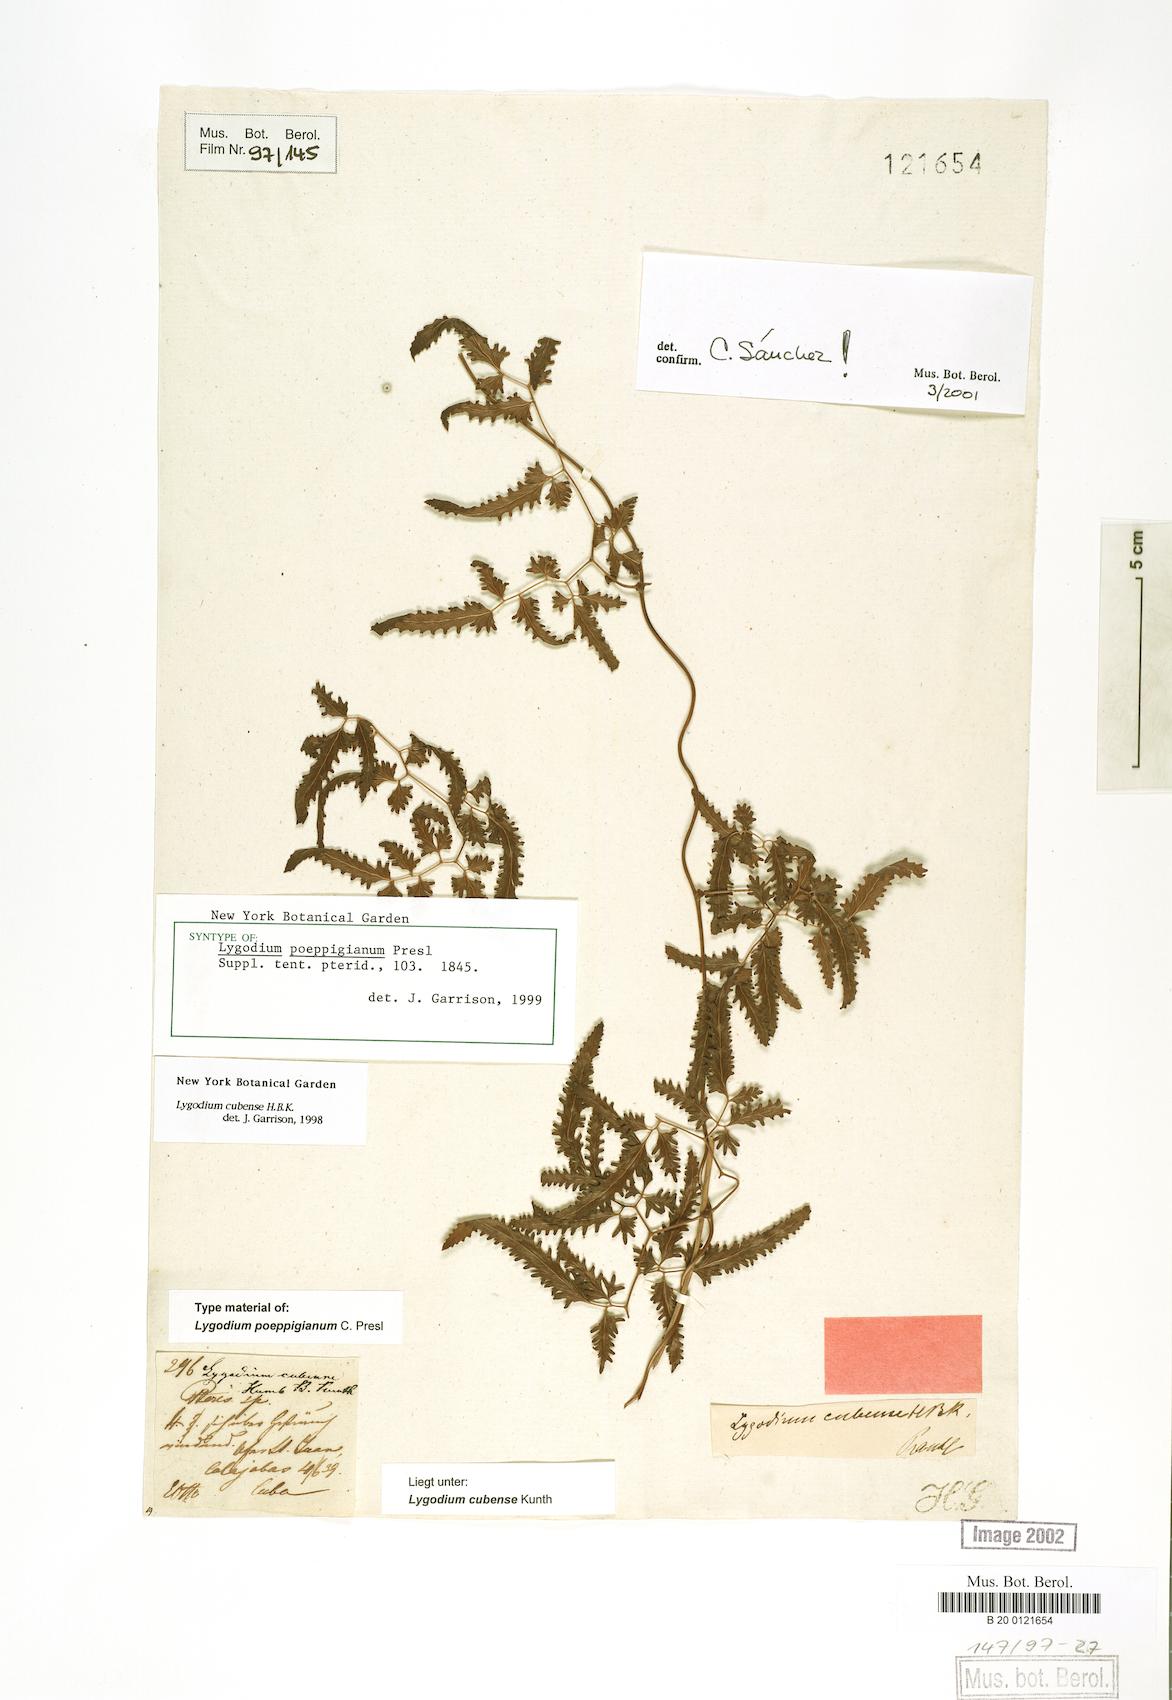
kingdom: Plantae
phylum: Tracheophyta
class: Polypodiopsida
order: Schizaeales
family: Lygodiaceae
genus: Lygodium
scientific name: Lygodium cubense
